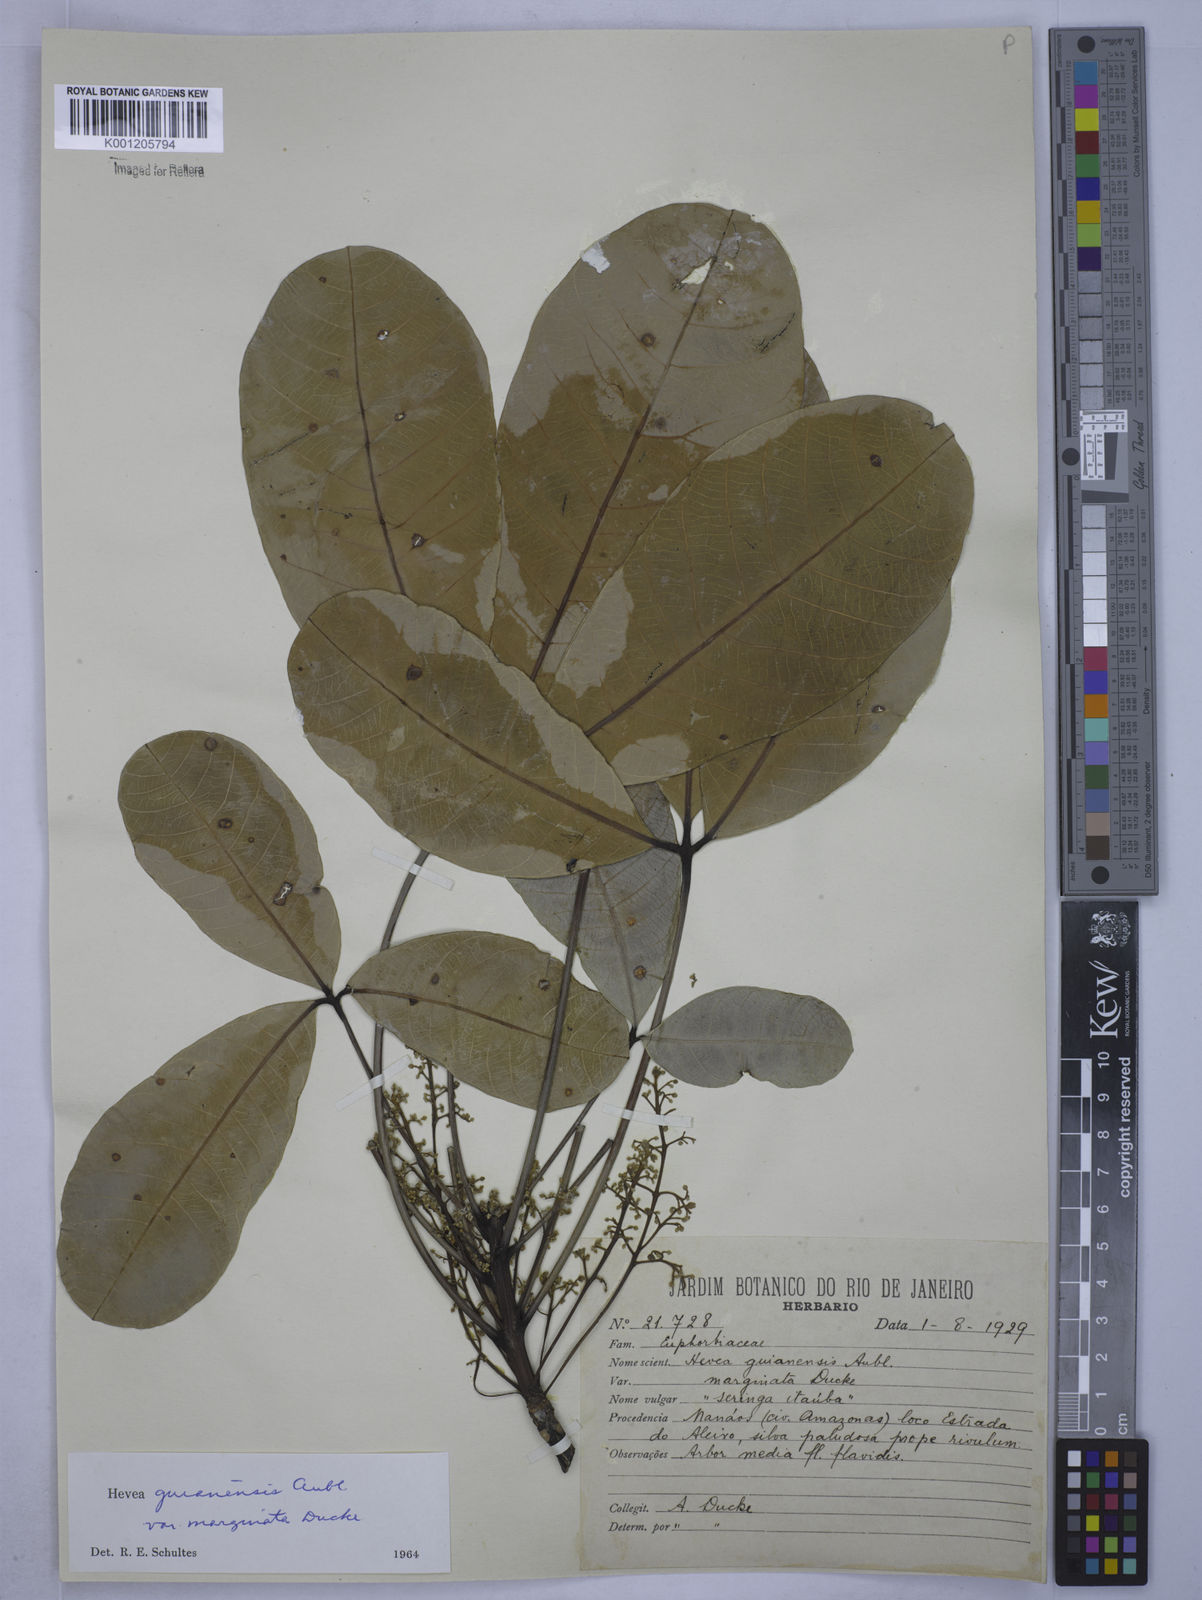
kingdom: Plantae
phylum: Tracheophyta
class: Magnoliopsida
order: Malpighiales
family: Euphorbiaceae
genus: Hevea
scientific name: Hevea guianensis
